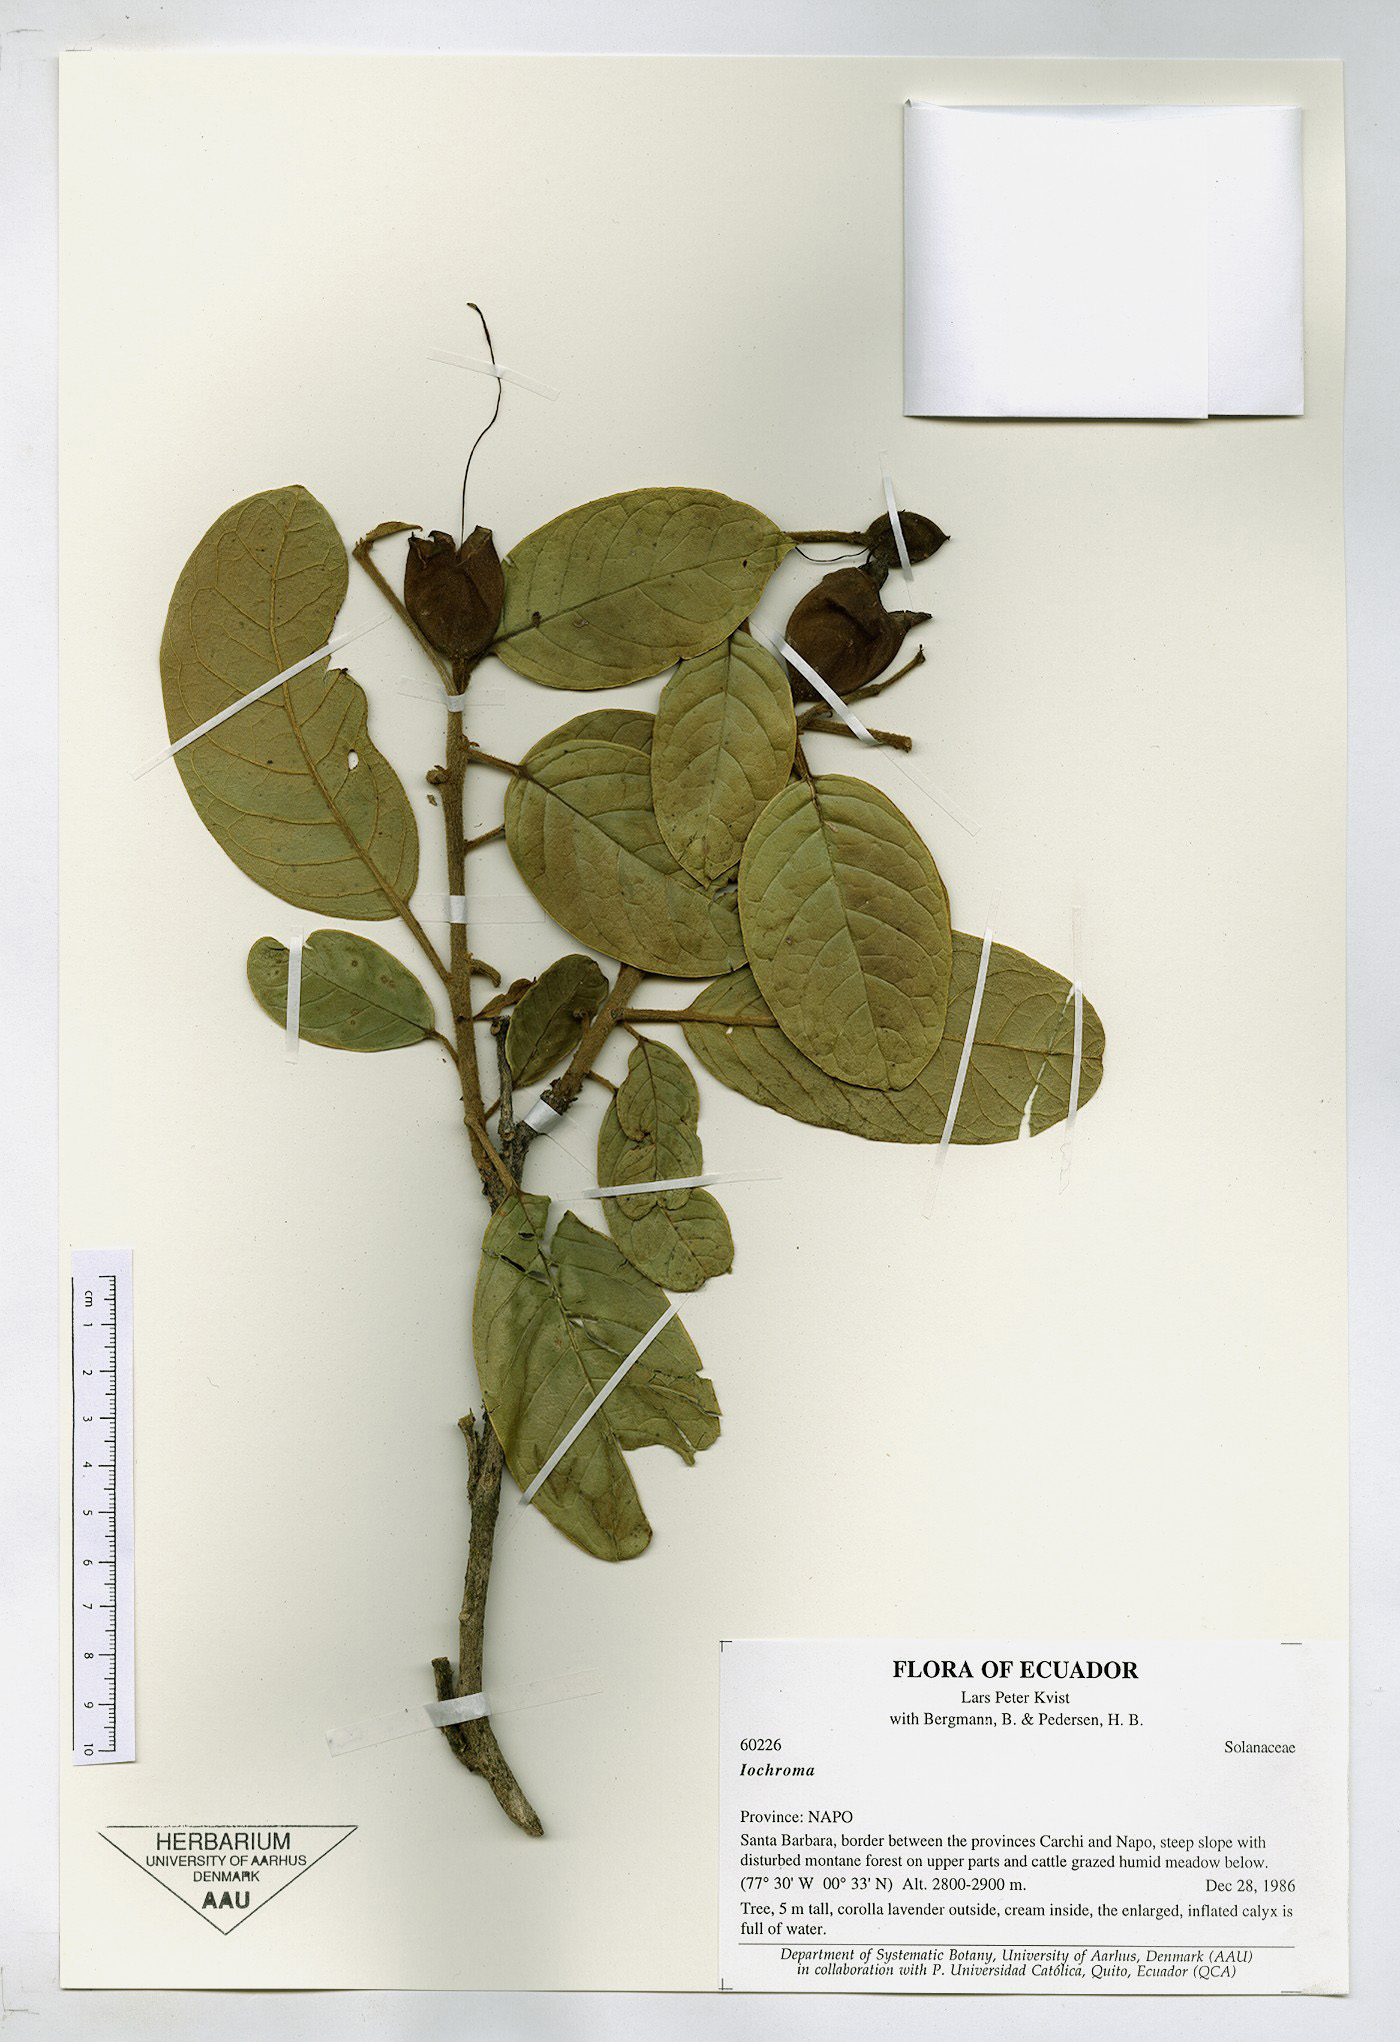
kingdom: Plantae
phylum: Tracheophyta
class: Magnoliopsida
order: Solanales
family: Solanaceae
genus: Iochroma
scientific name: Iochroma
